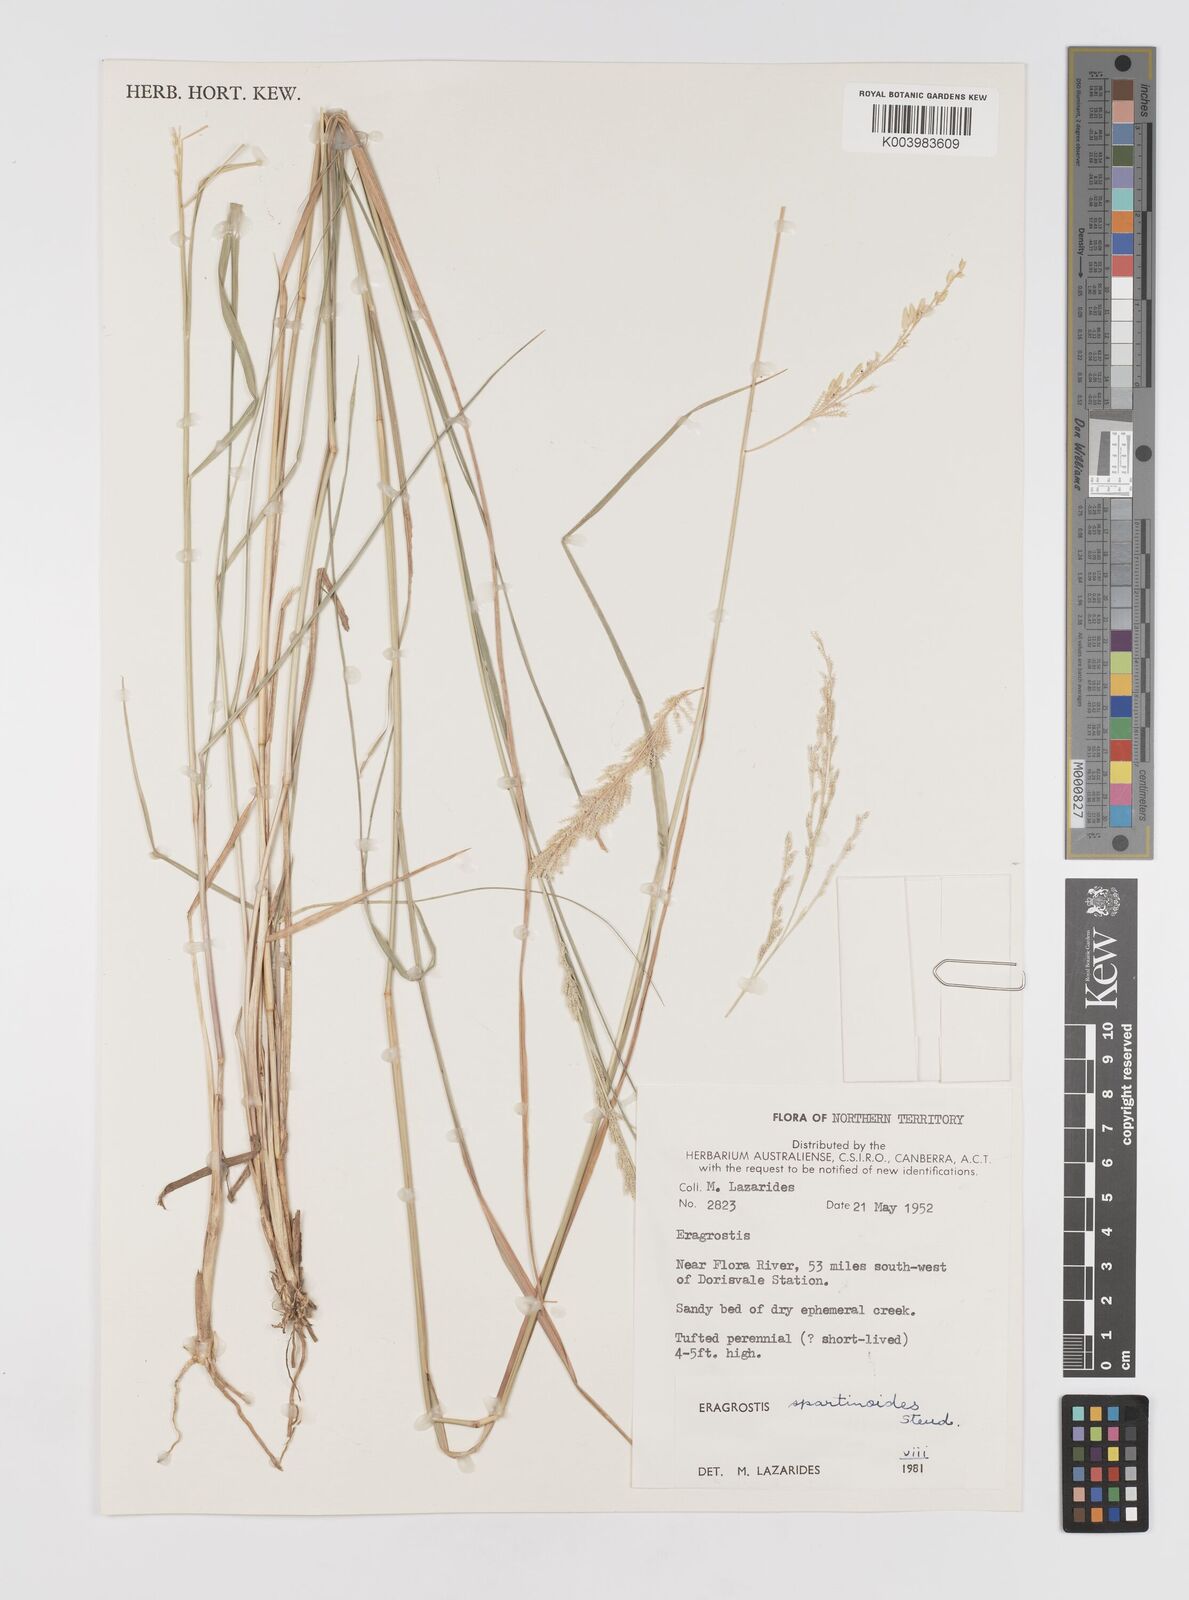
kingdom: Plantae
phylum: Tracheophyta
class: Liliopsida
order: Poales
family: Poaceae
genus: Eragrostis
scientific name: Eragrostis brownii
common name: Lovegrass
